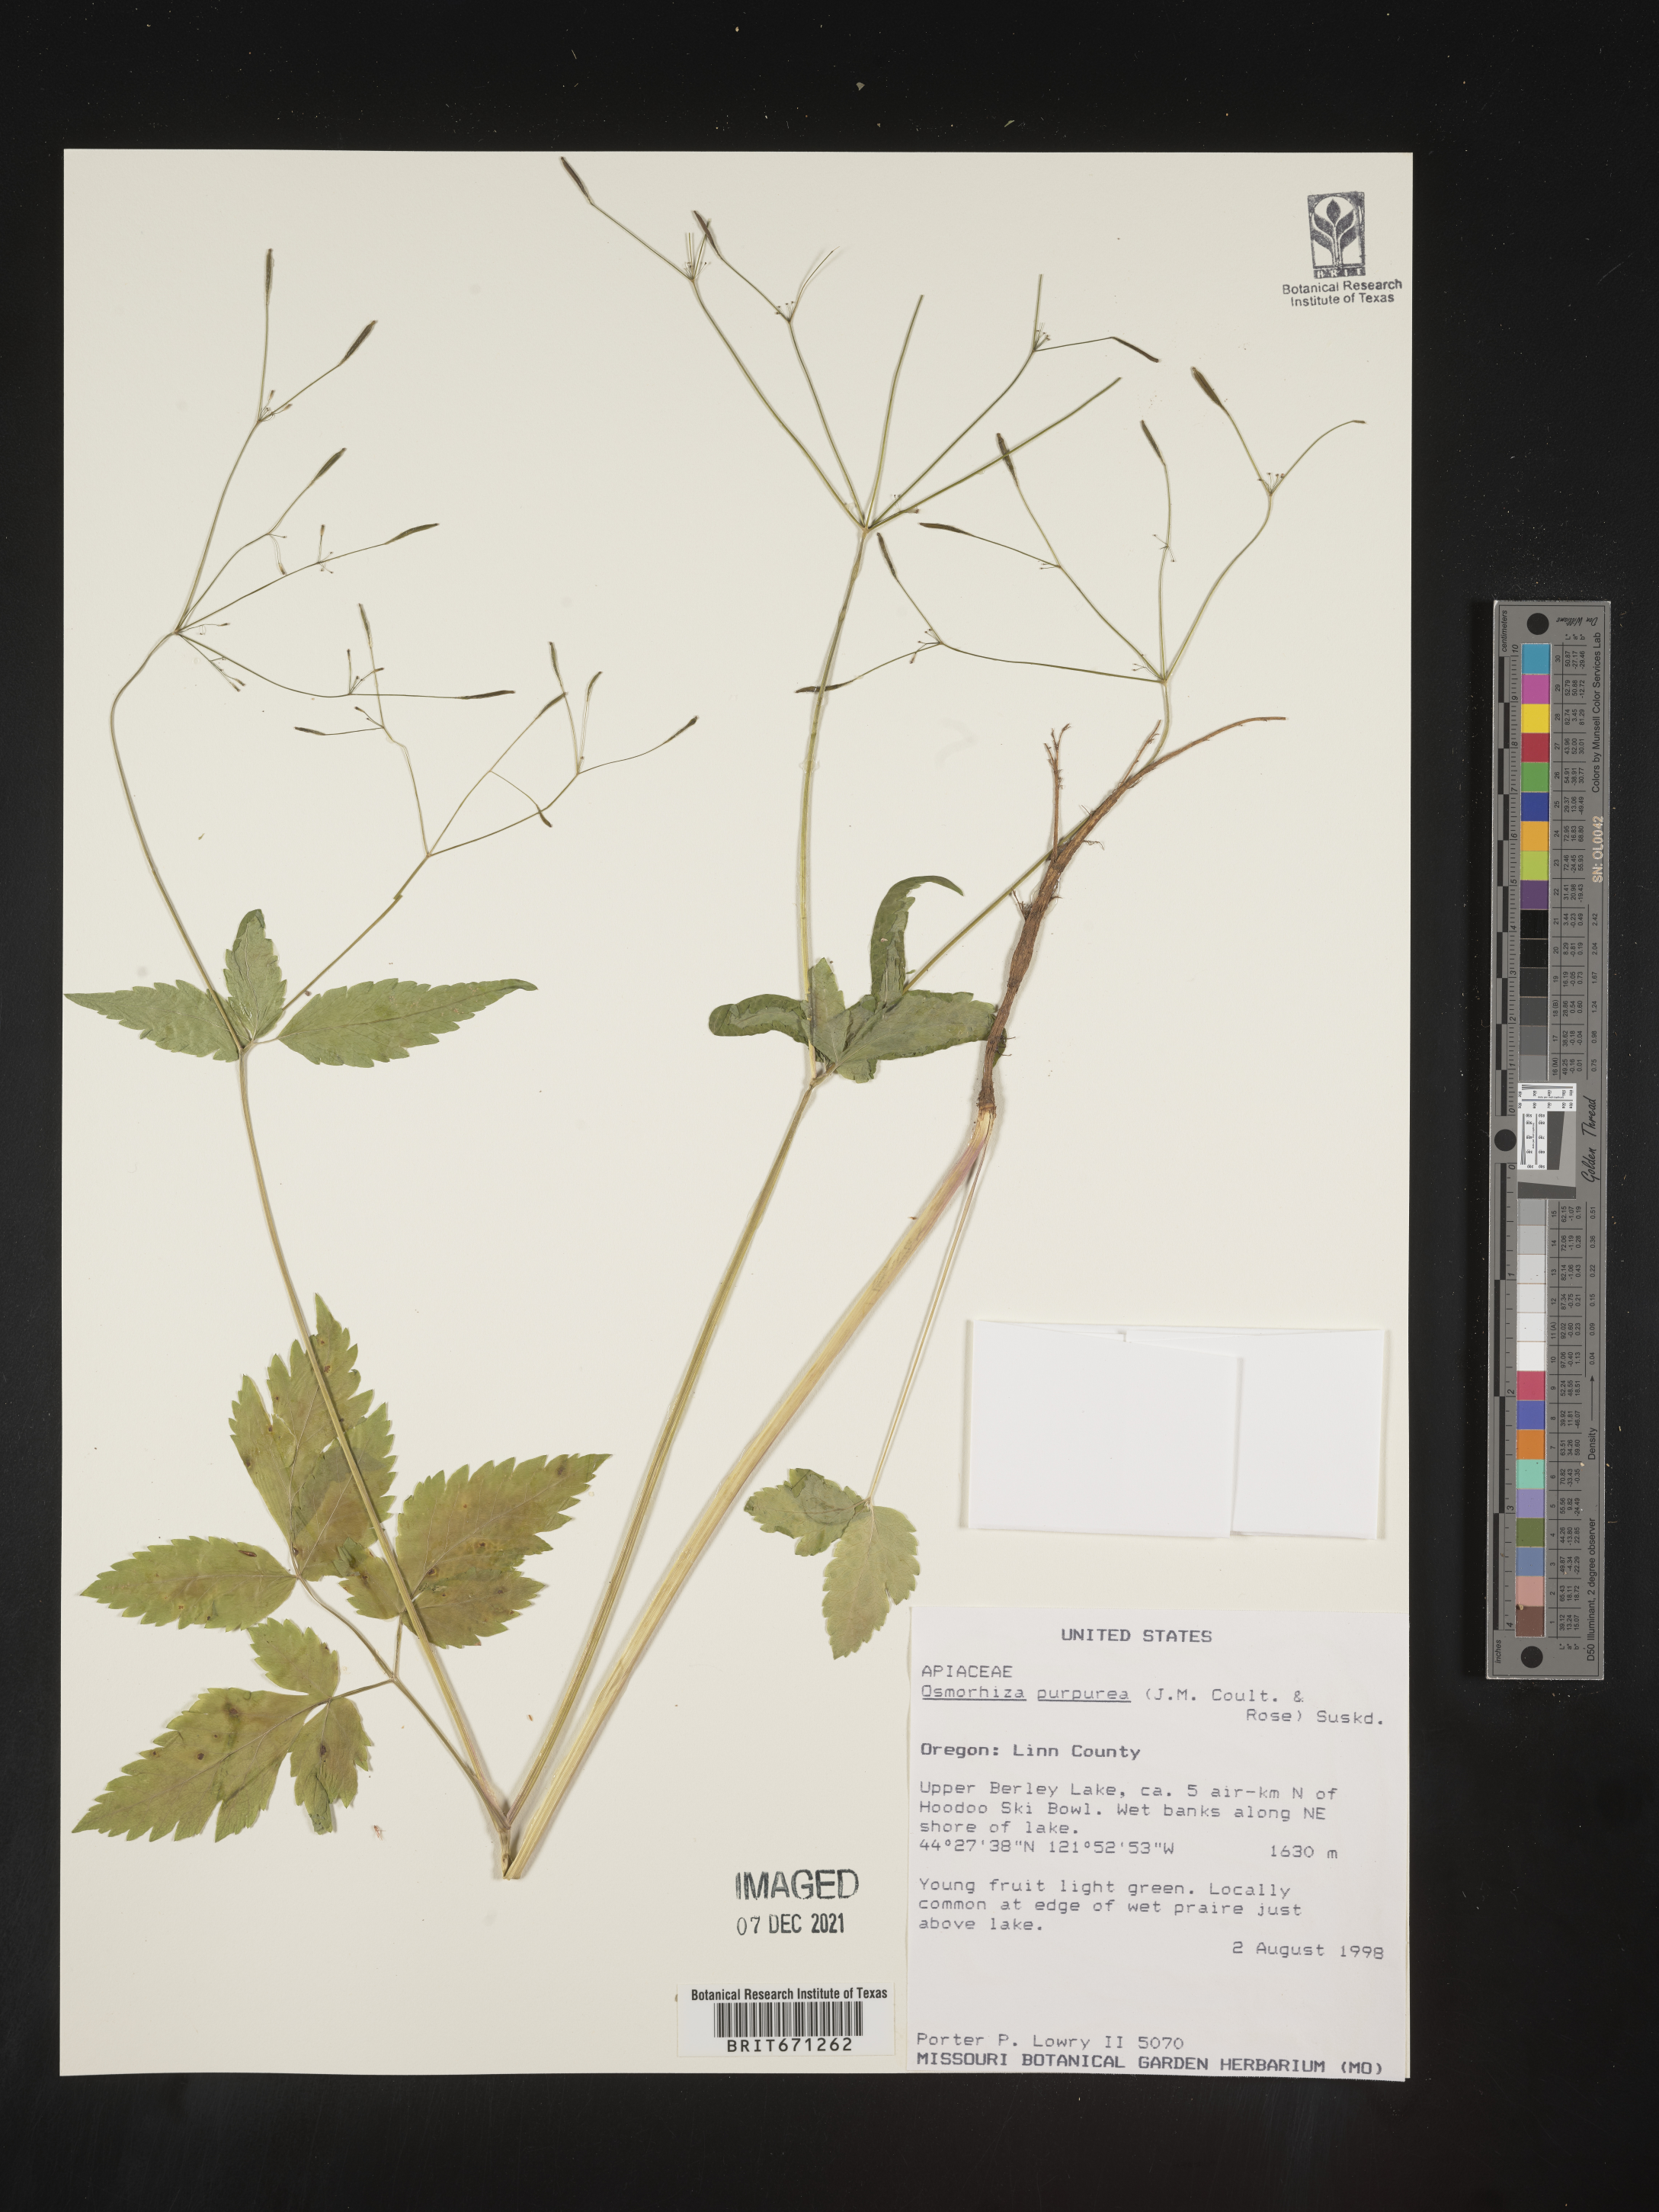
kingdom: Plantae
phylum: Tracheophyta
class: Magnoliopsida
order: Apiales
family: Apiaceae
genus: Osmorhiza
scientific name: Osmorhiza purpurea
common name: Purple sweet cicely
